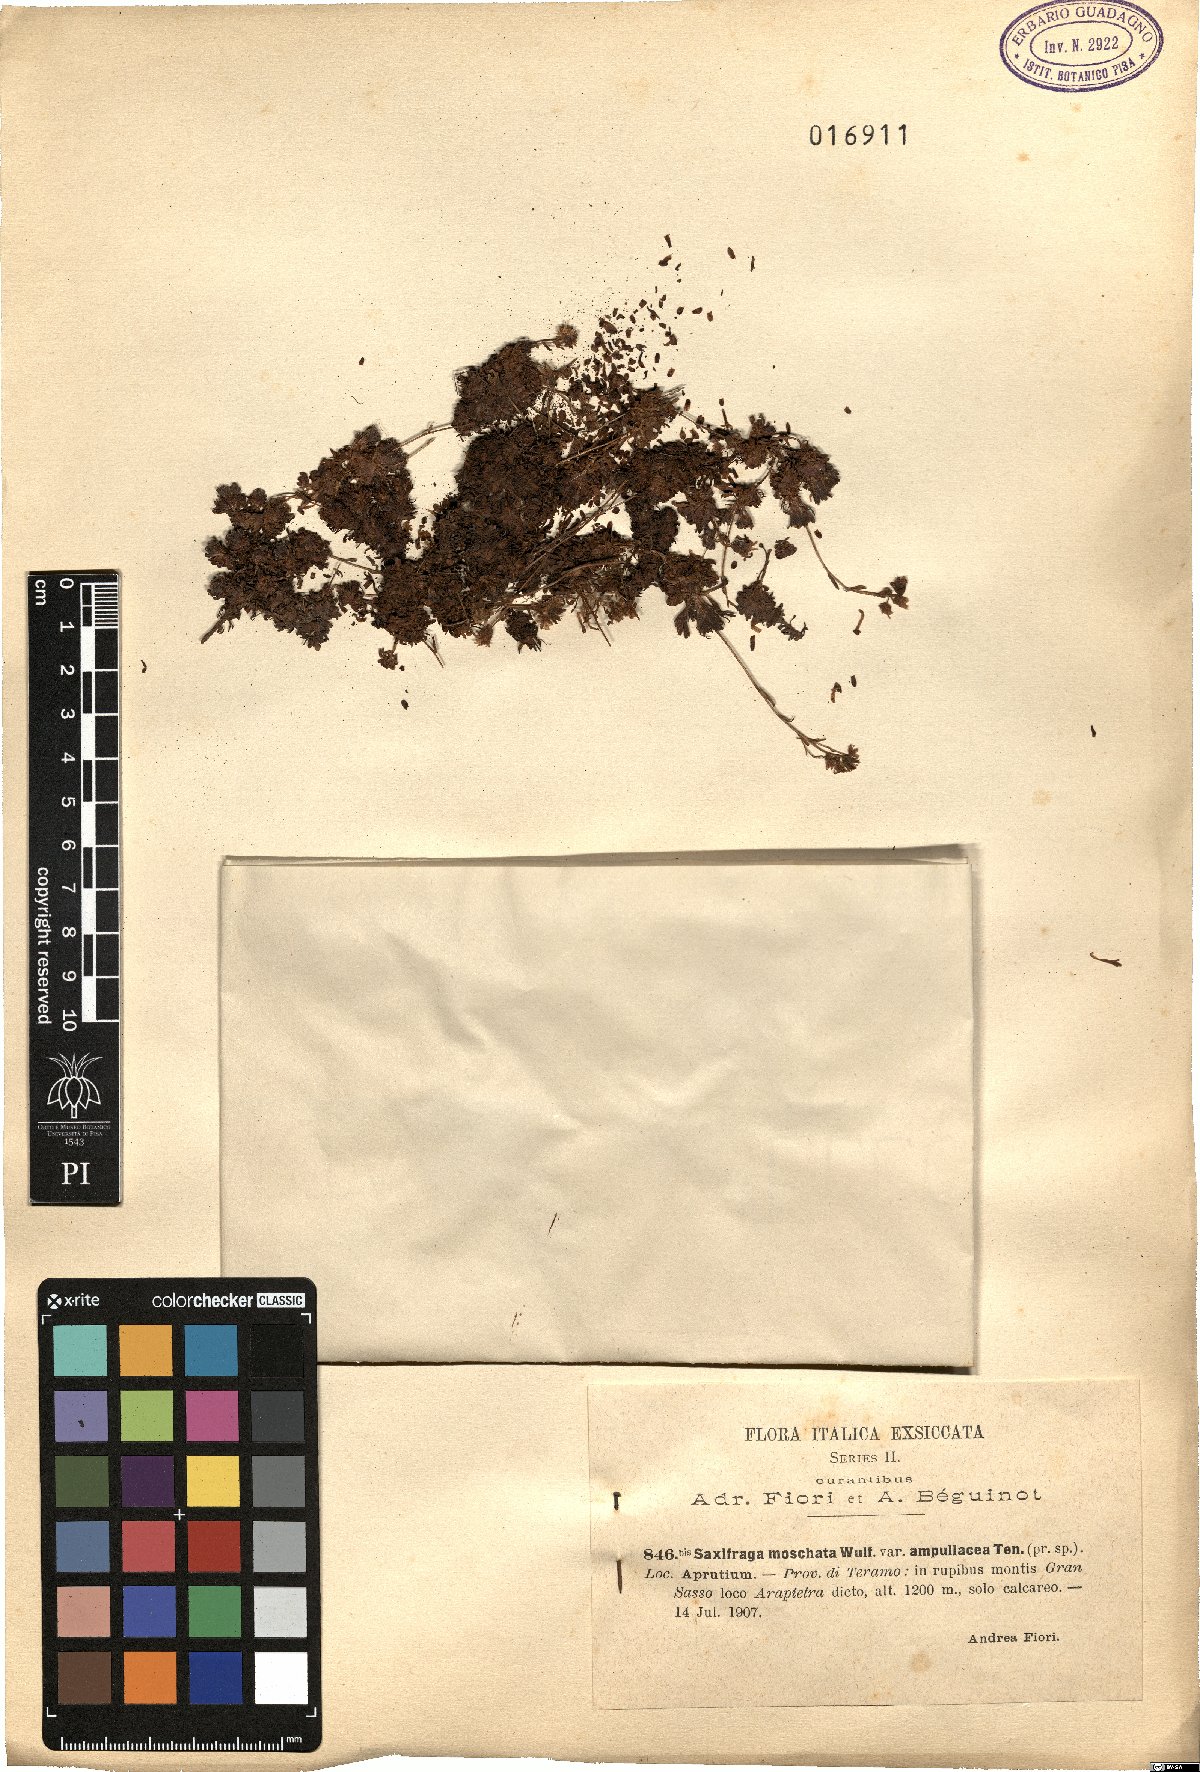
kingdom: Plantae
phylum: Tracheophyta
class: Magnoliopsida
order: Saxifragales
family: Saxifragaceae
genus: Saxifraga
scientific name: Saxifraga exarata
